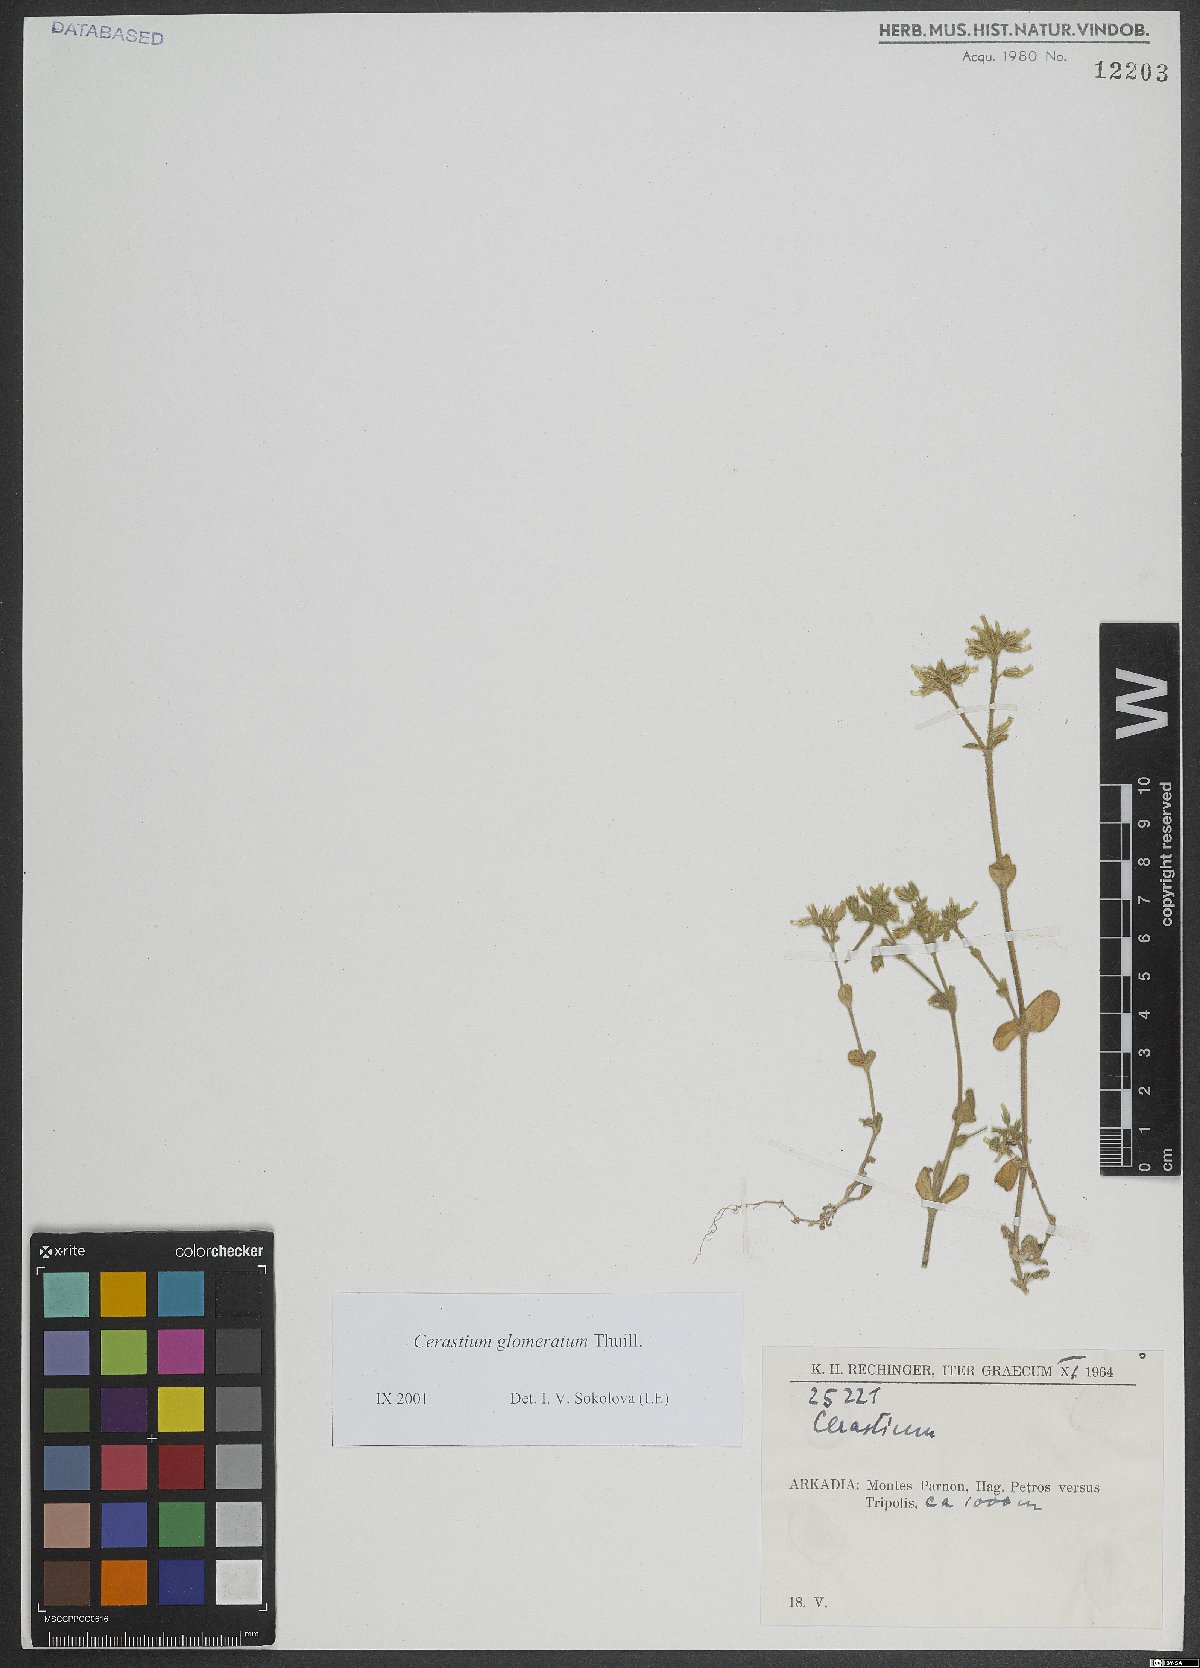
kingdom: Plantae
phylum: Tracheophyta
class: Magnoliopsida
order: Caryophyllales
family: Caryophyllaceae
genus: Cerastium
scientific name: Cerastium glomeratum
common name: Sticky chickweed
